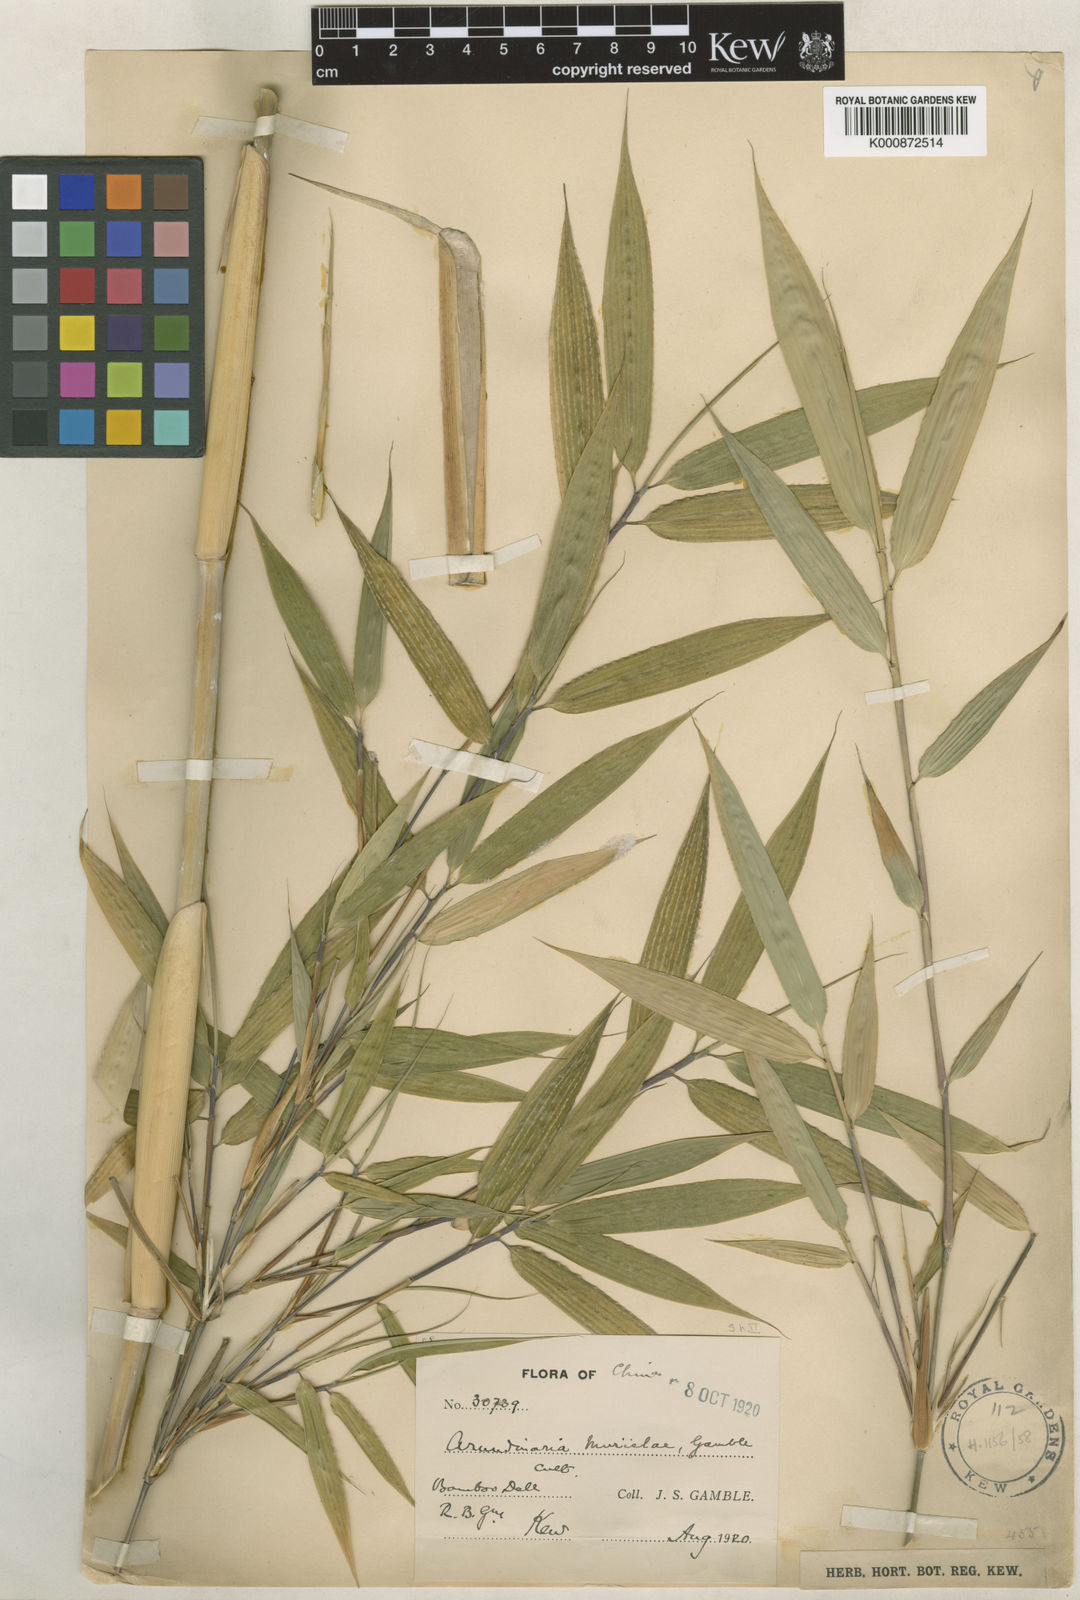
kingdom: Plantae
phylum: Tracheophyta
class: Liliopsida
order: Poales
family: Poaceae
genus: Fargesia
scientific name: Fargesia murielae
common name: Umbrella bamboo
